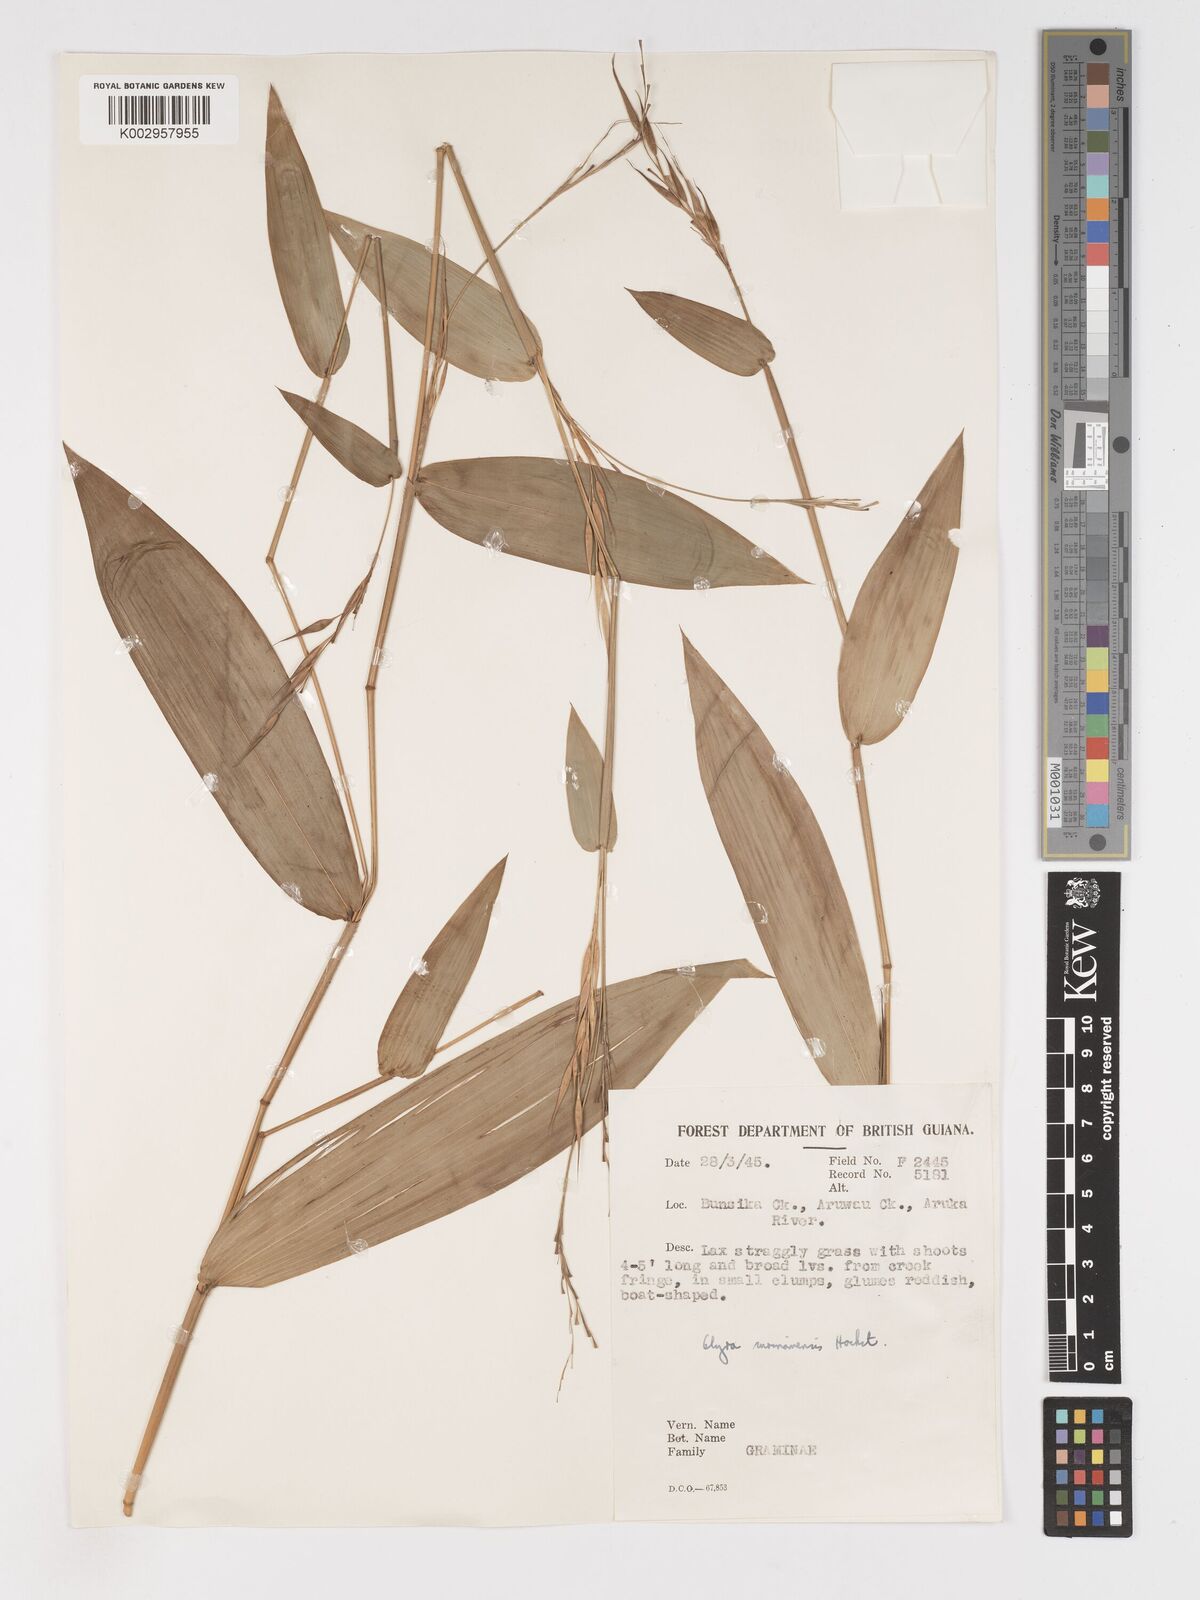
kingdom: Plantae
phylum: Tracheophyta
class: Liliopsida
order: Poales
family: Poaceae
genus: Olyra
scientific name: Olyra longifolia
